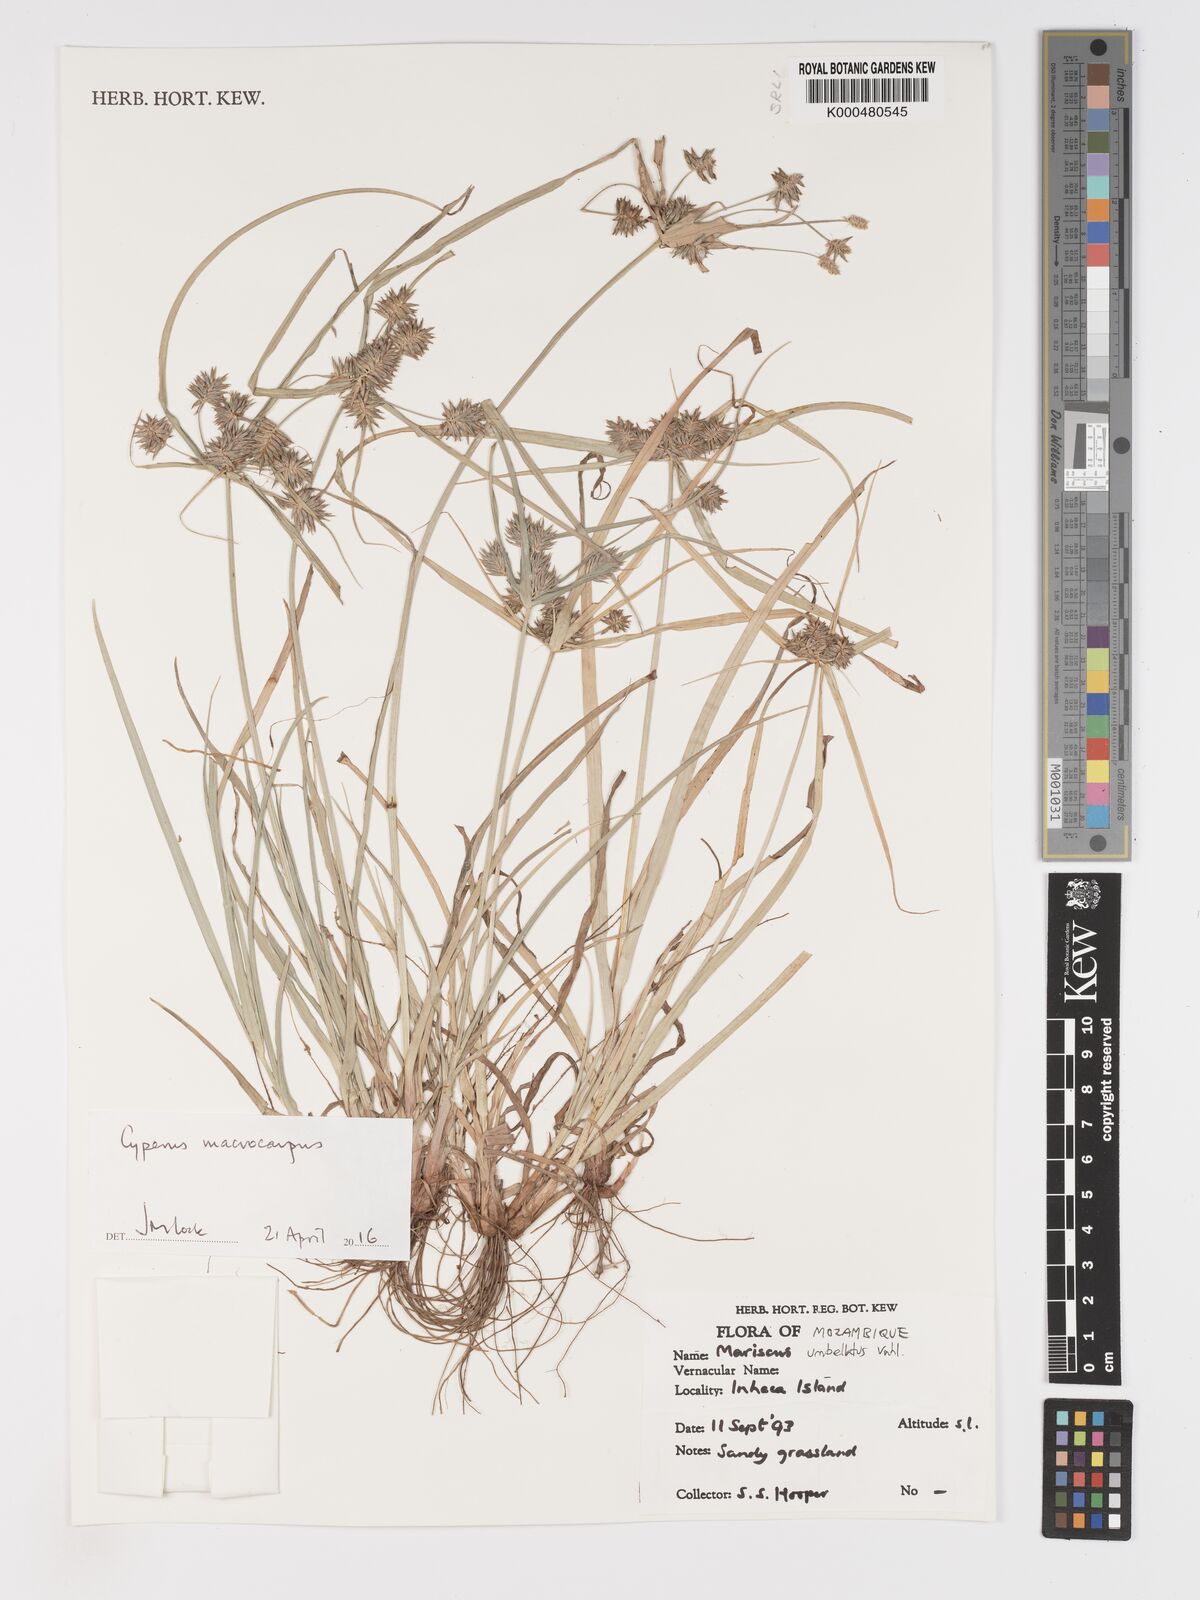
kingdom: Plantae
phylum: Tracheophyta
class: Liliopsida
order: Poales
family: Cyperaceae
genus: Mariscus
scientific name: Mariscus
